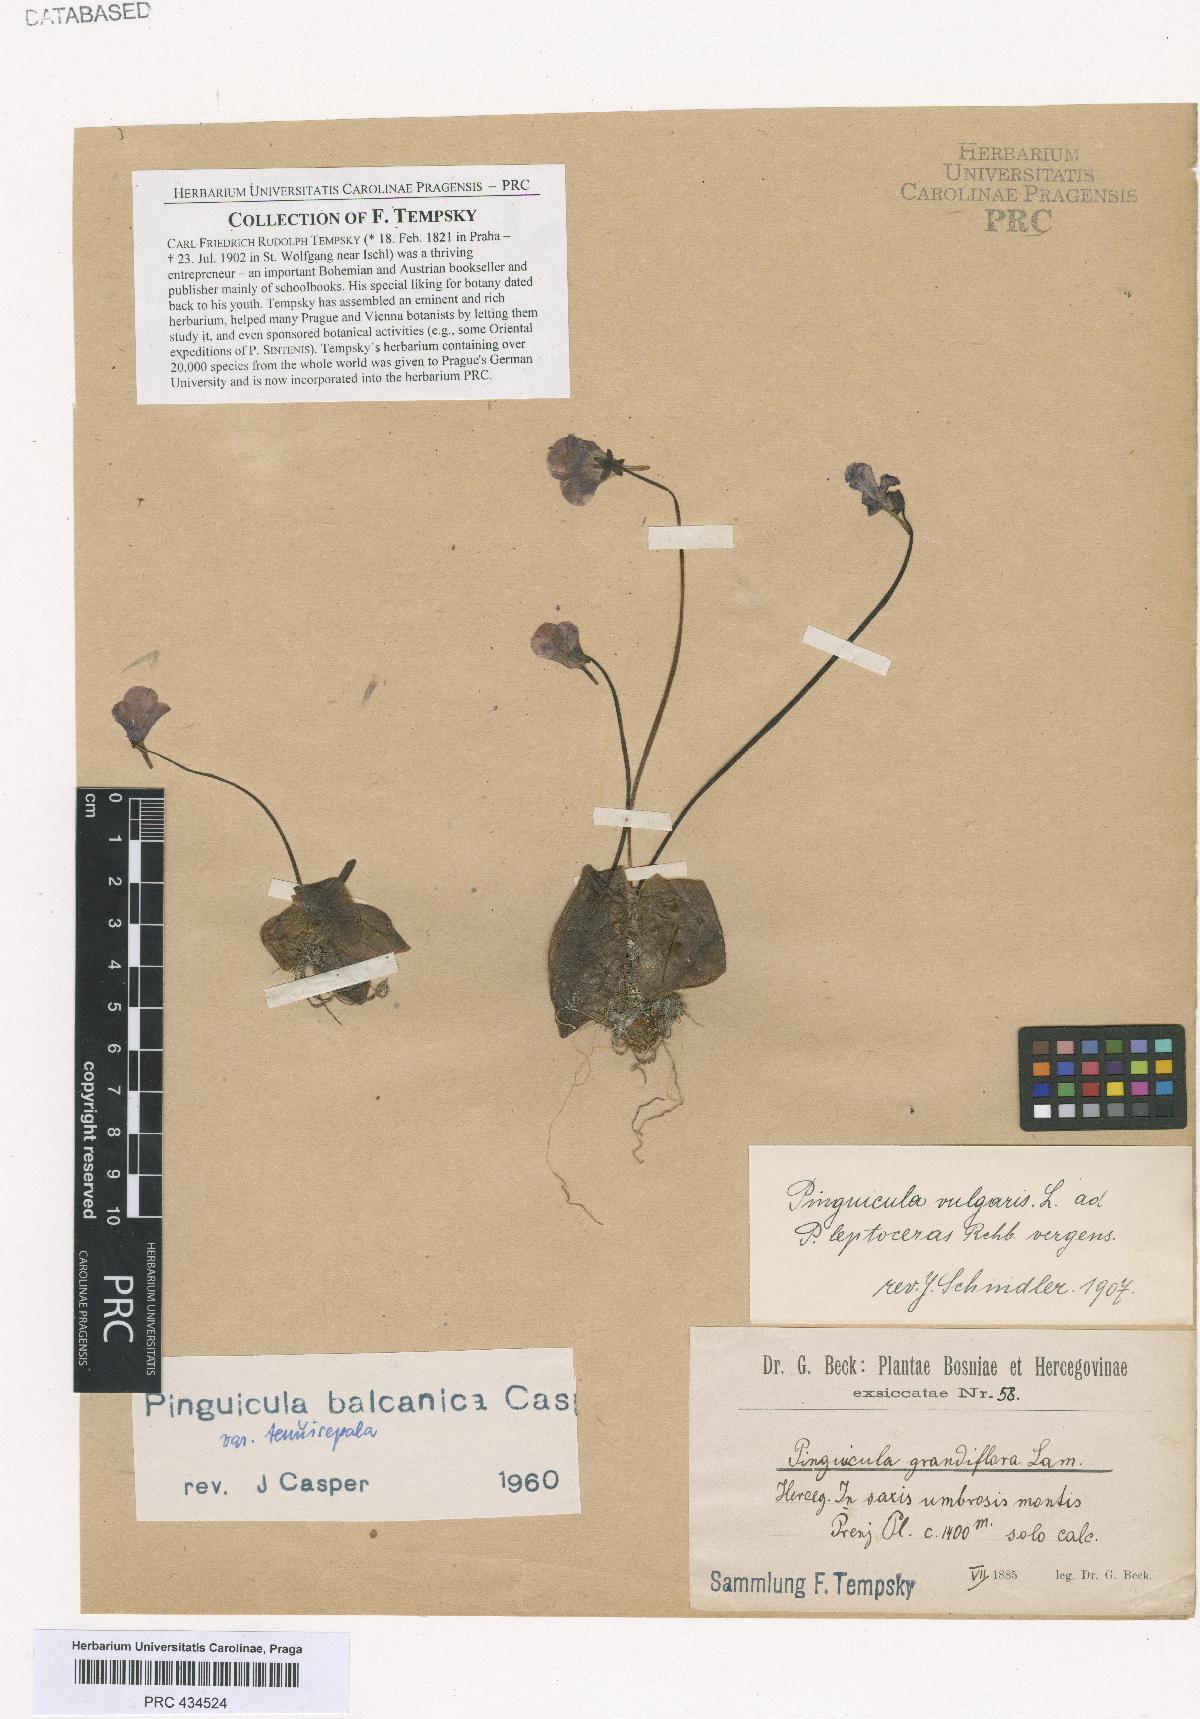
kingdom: Plantae
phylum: Tracheophyta
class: Magnoliopsida
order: Lamiales
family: Lentibulariaceae
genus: Pinguicula
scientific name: Pinguicula balcanica
